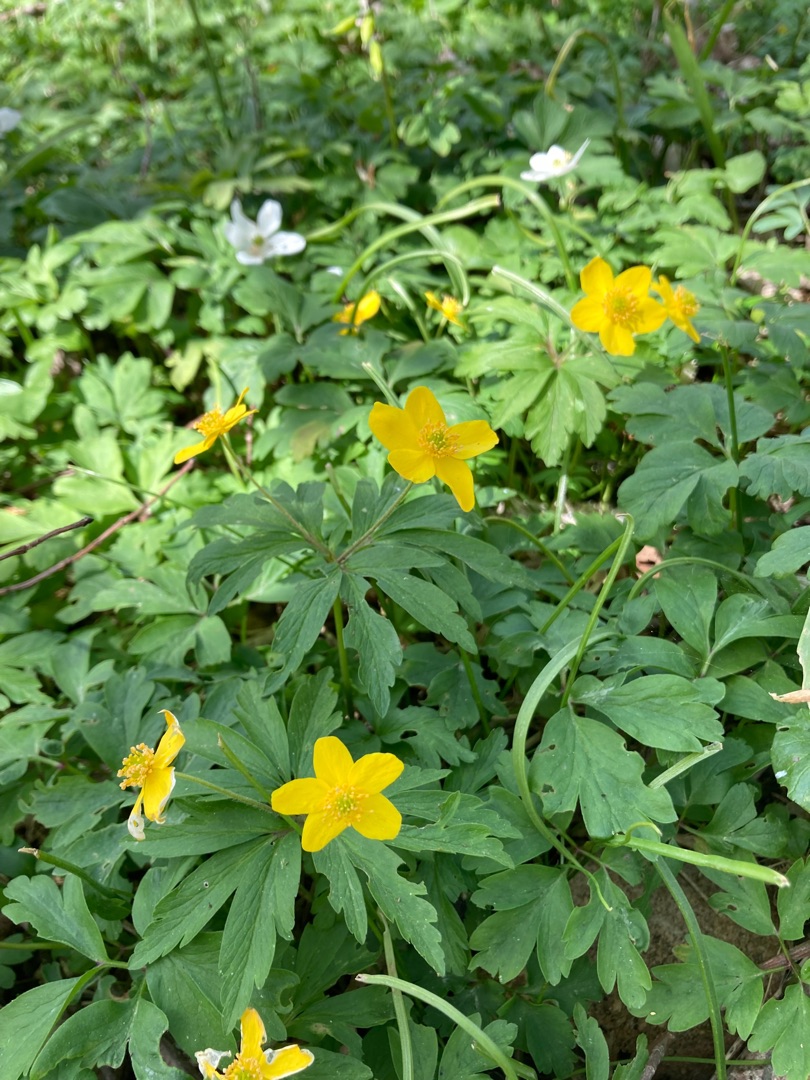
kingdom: Plantae
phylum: Tracheophyta
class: Magnoliopsida
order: Ranunculales
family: Ranunculaceae
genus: Anemone
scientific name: Anemone ranunculoides
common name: Gul anemone
